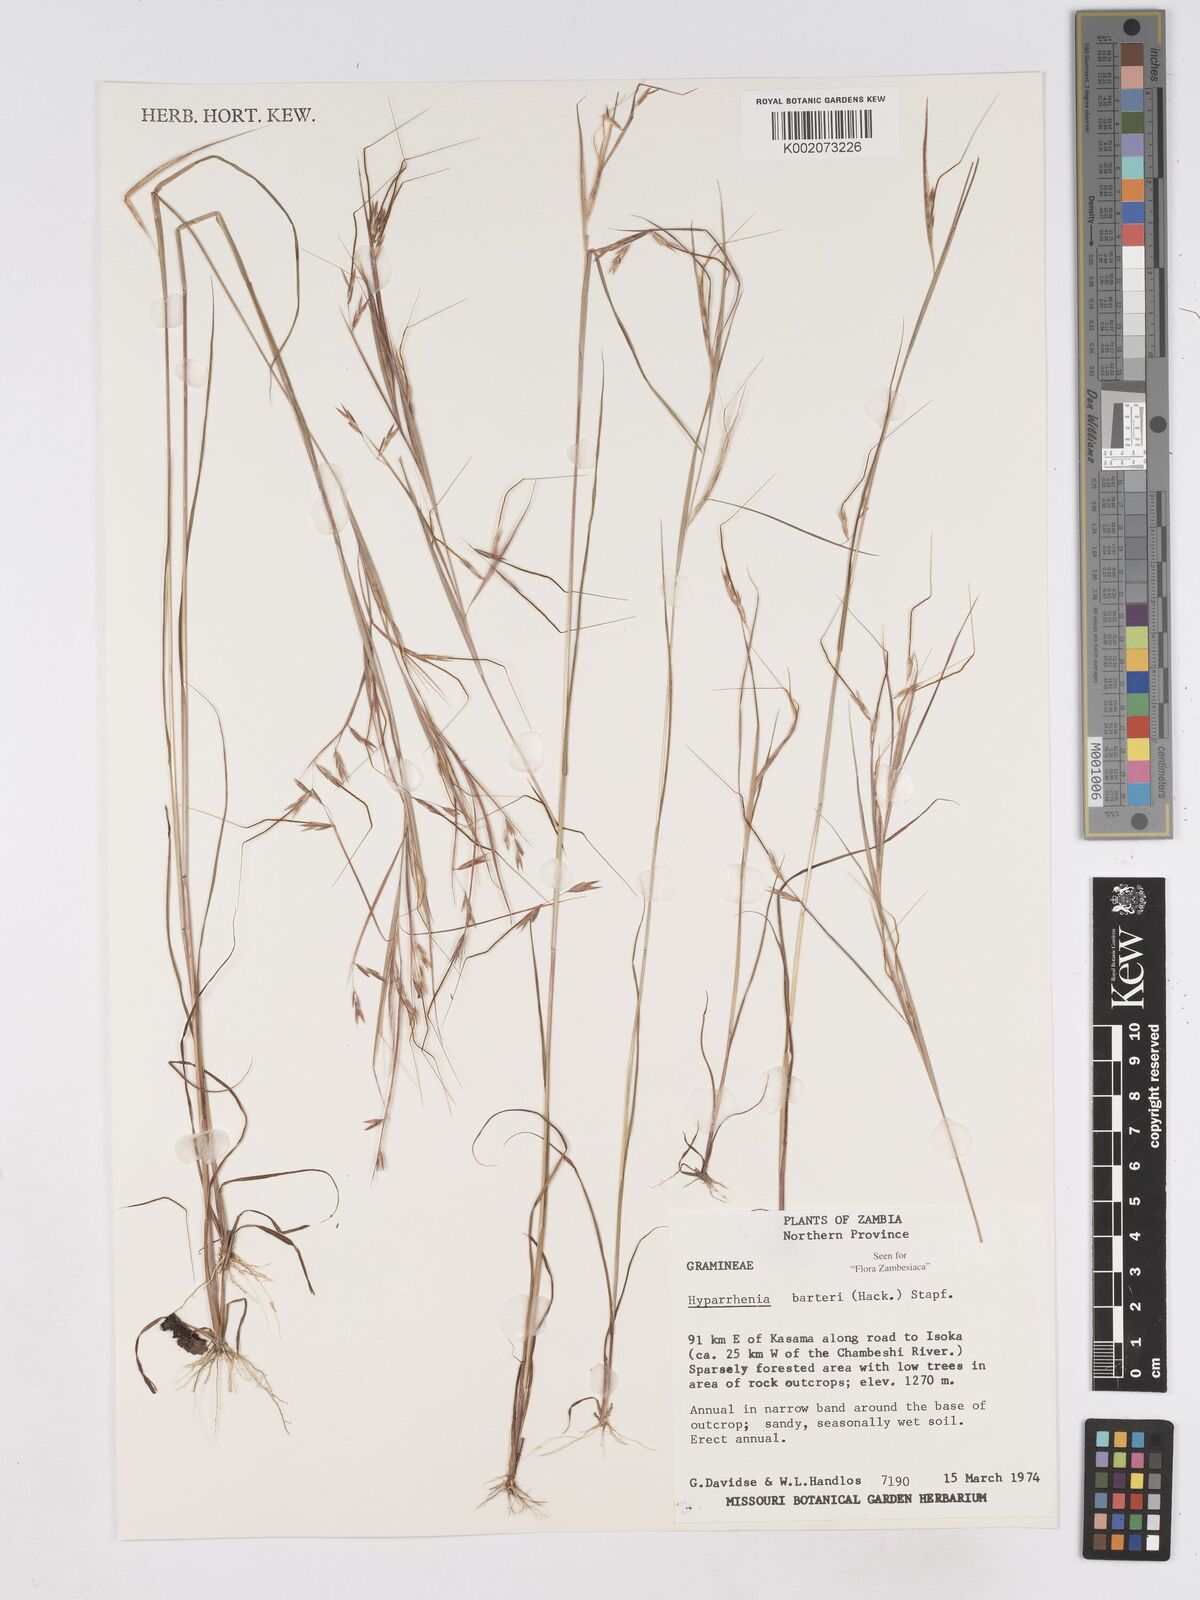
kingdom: Plantae
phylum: Tracheophyta
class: Liliopsida
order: Poales
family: Poaceae
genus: Hyparrhenia
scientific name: Hyparrhenia barteri
